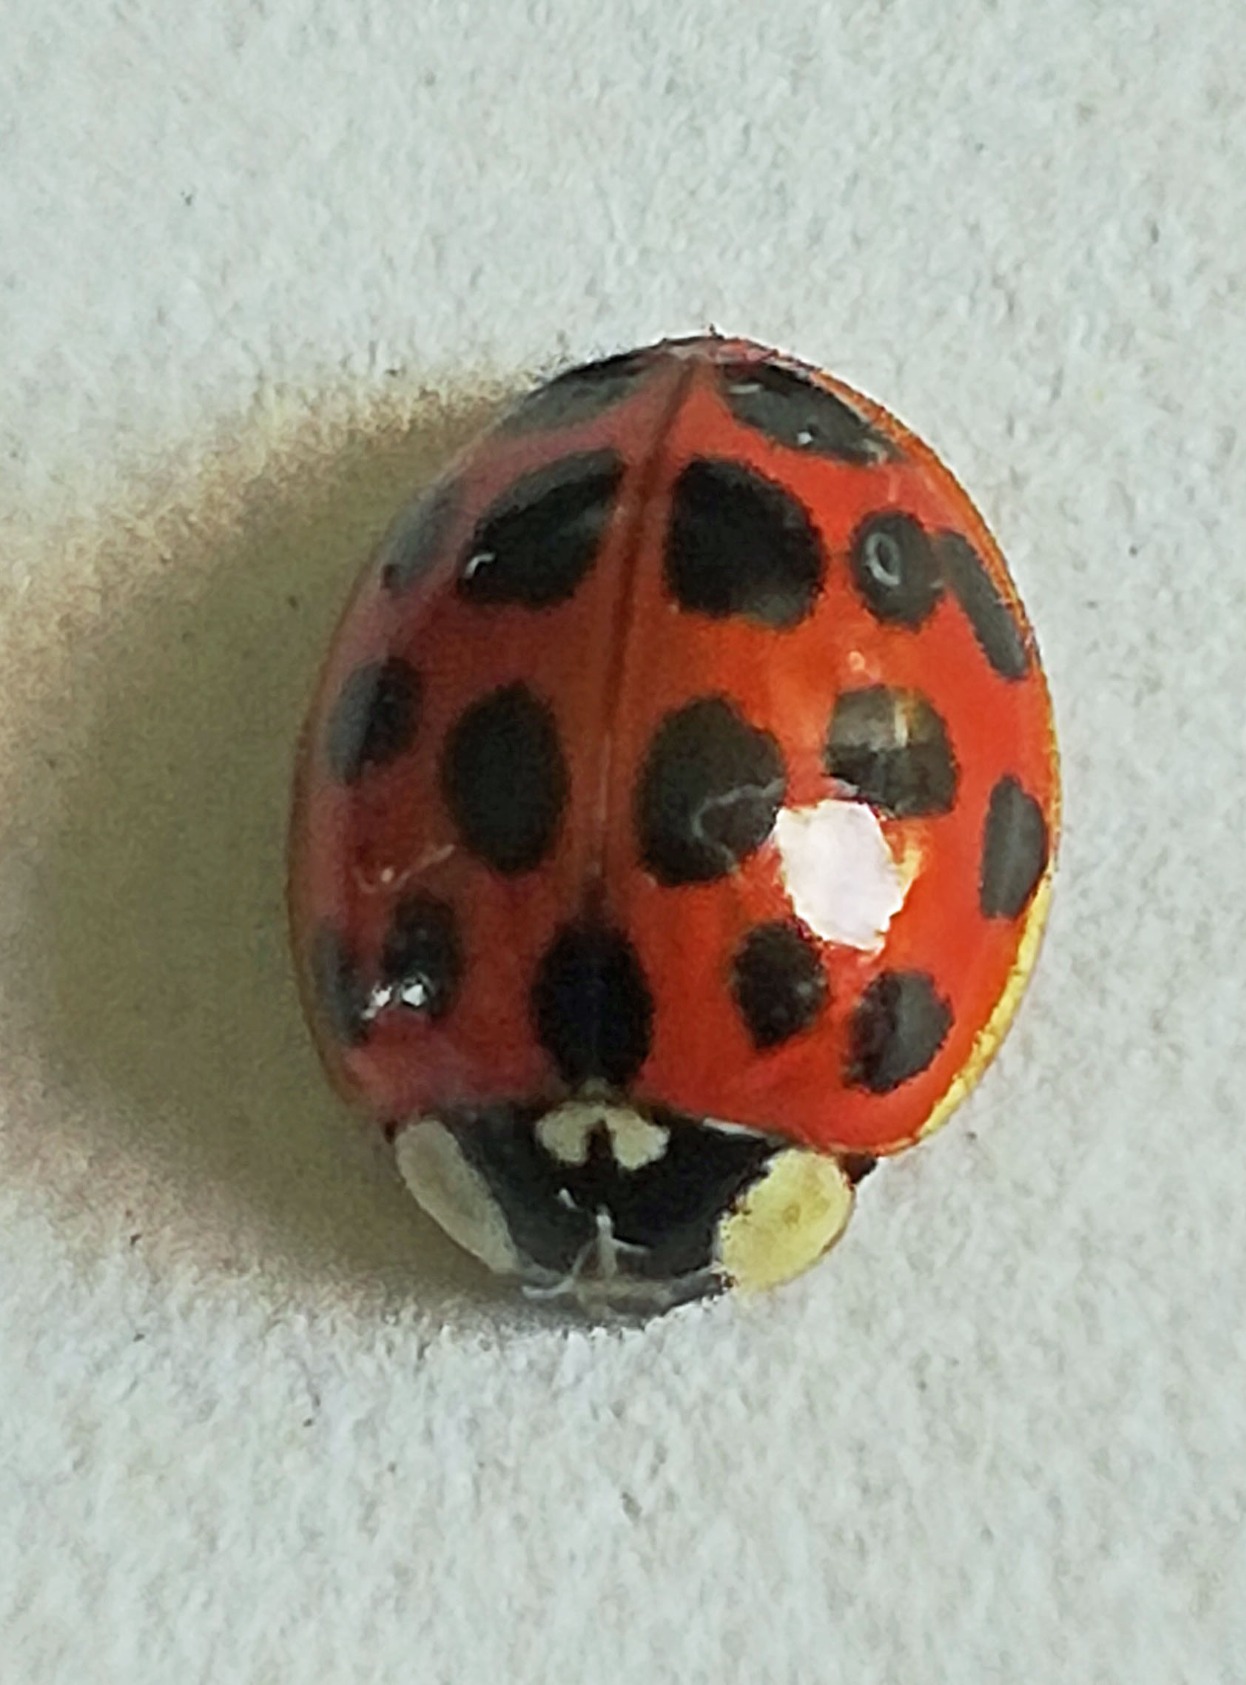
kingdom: Animalia
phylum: Arthropoda
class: Insecta
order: Coleoptera
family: Coccinellidae
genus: Harmonia
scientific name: Harmonia axyridis
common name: Harlekinmariehøne
